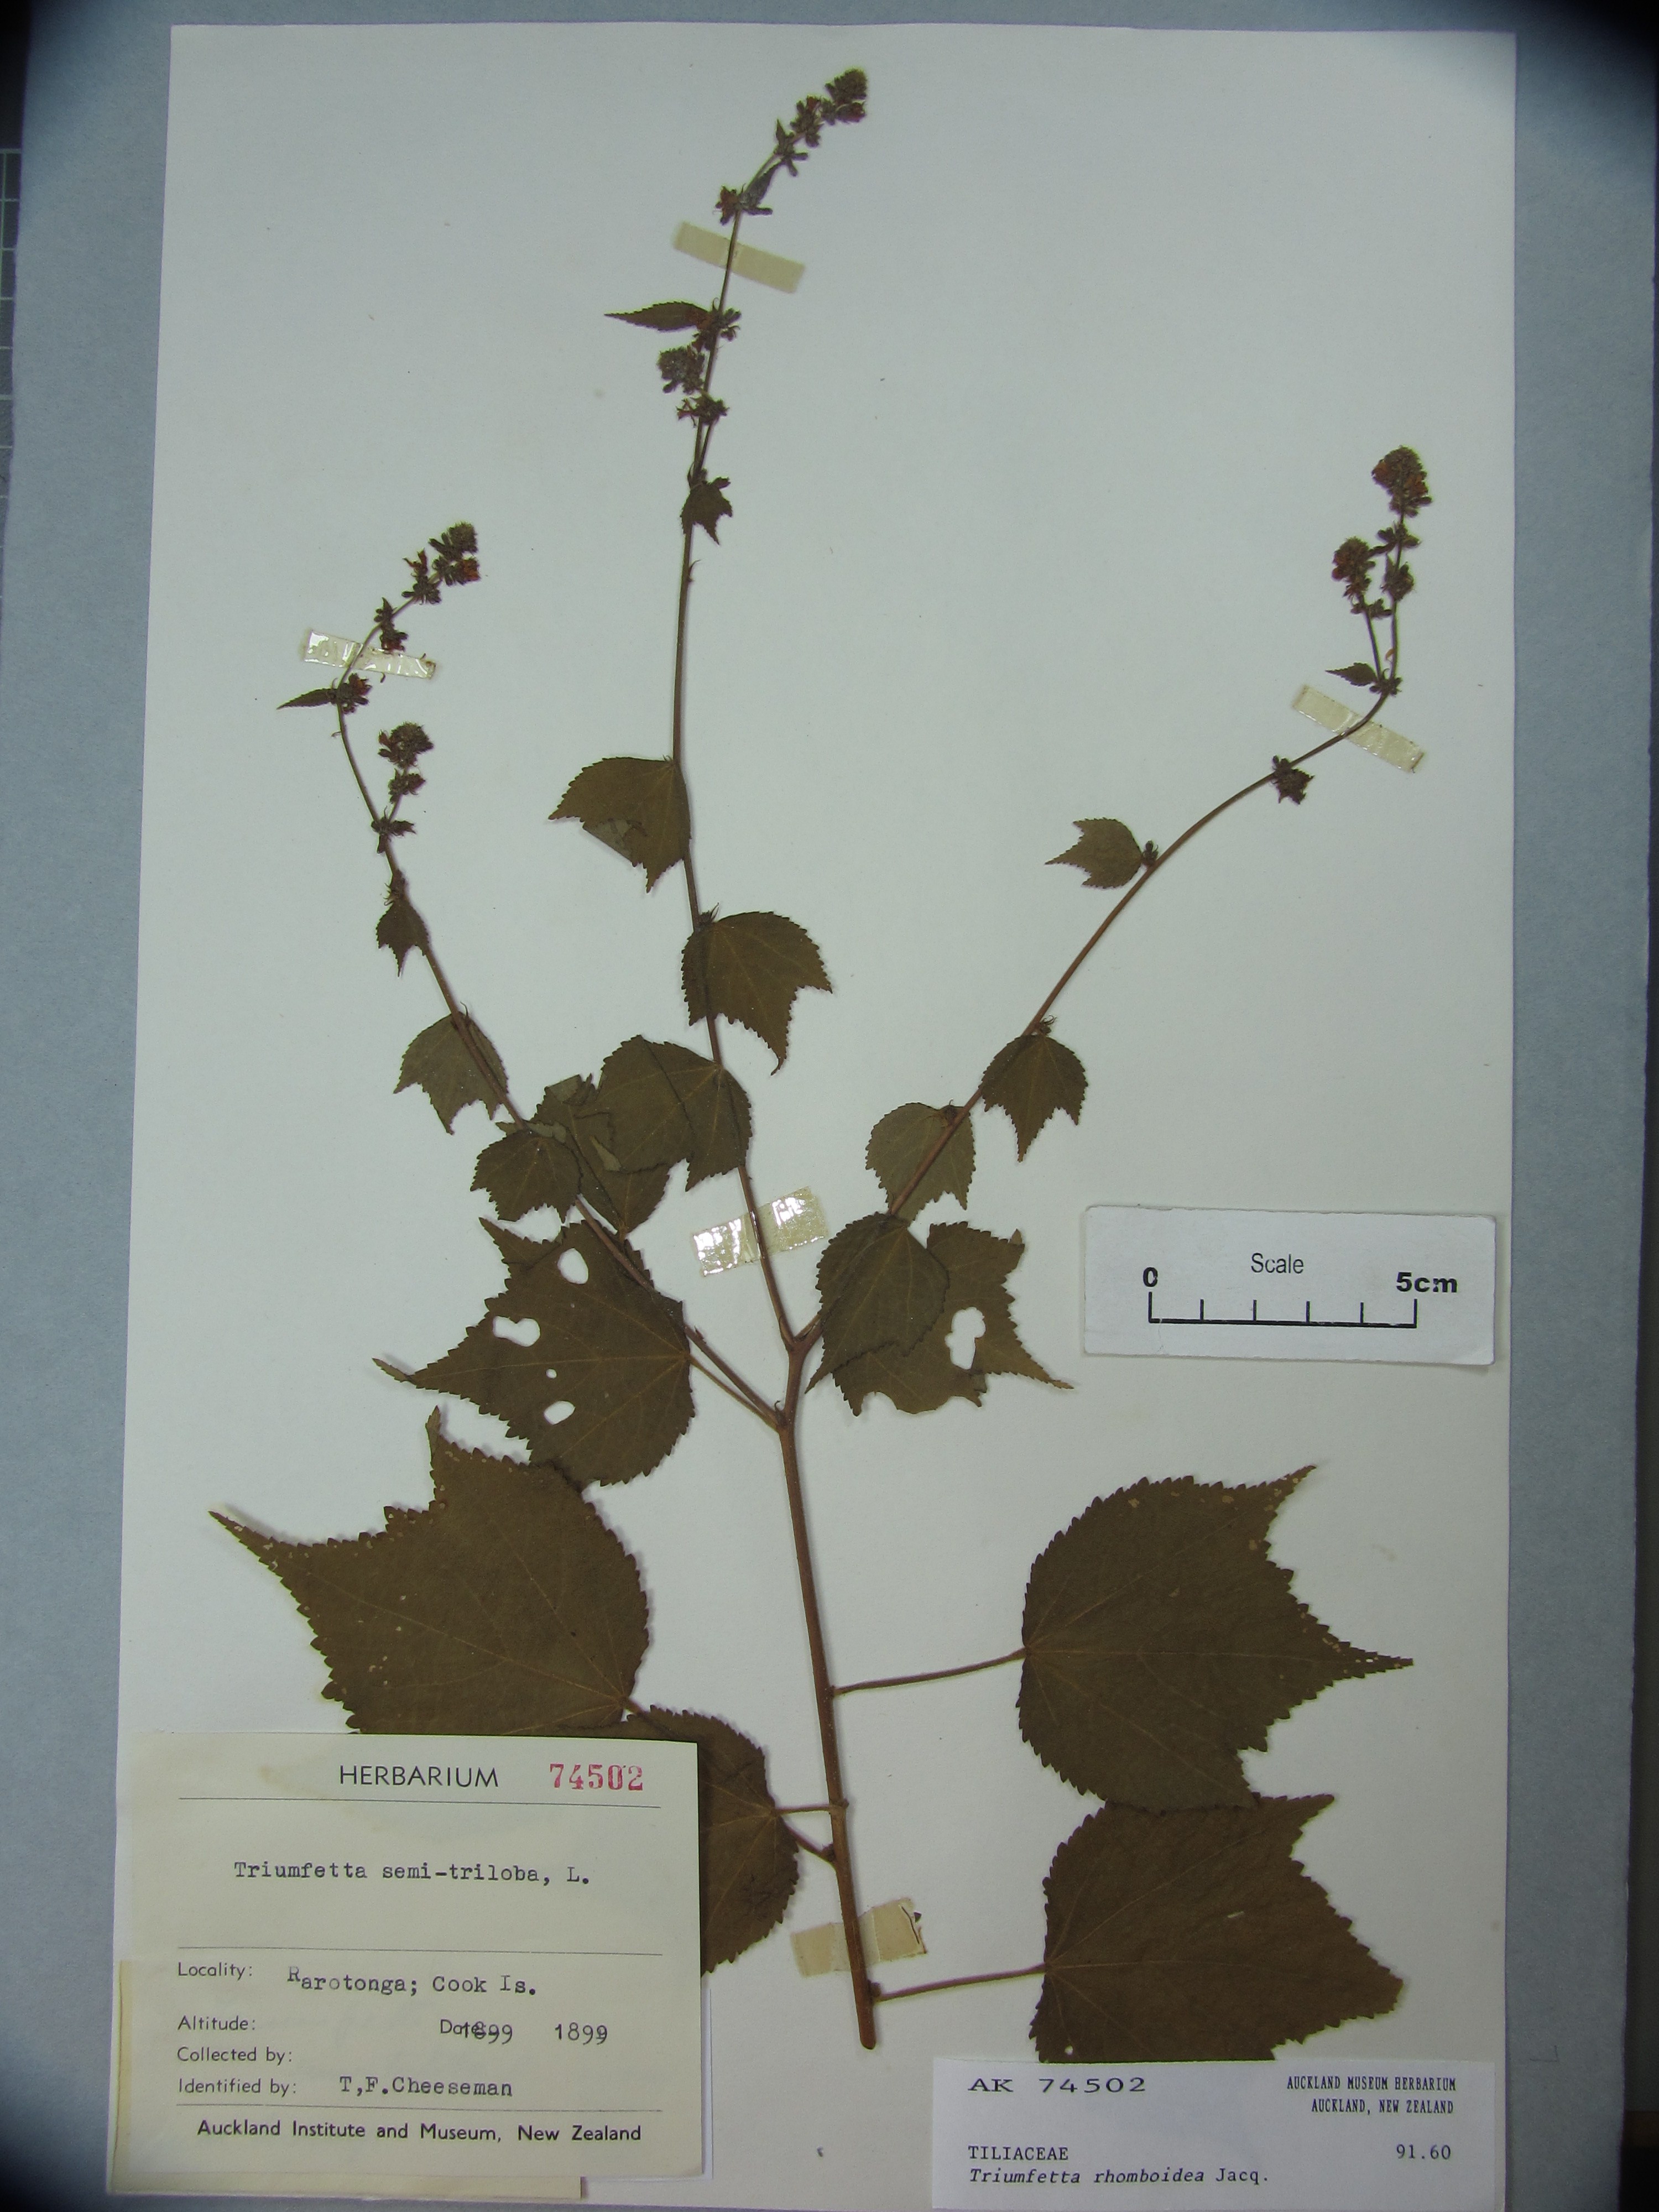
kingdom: Plantae
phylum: Tracheophyta
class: Magnoliopsida
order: Malvales
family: Malvaceae
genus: Triumfetta
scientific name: Triumfetta rhomboidea
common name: Diamond burbark
